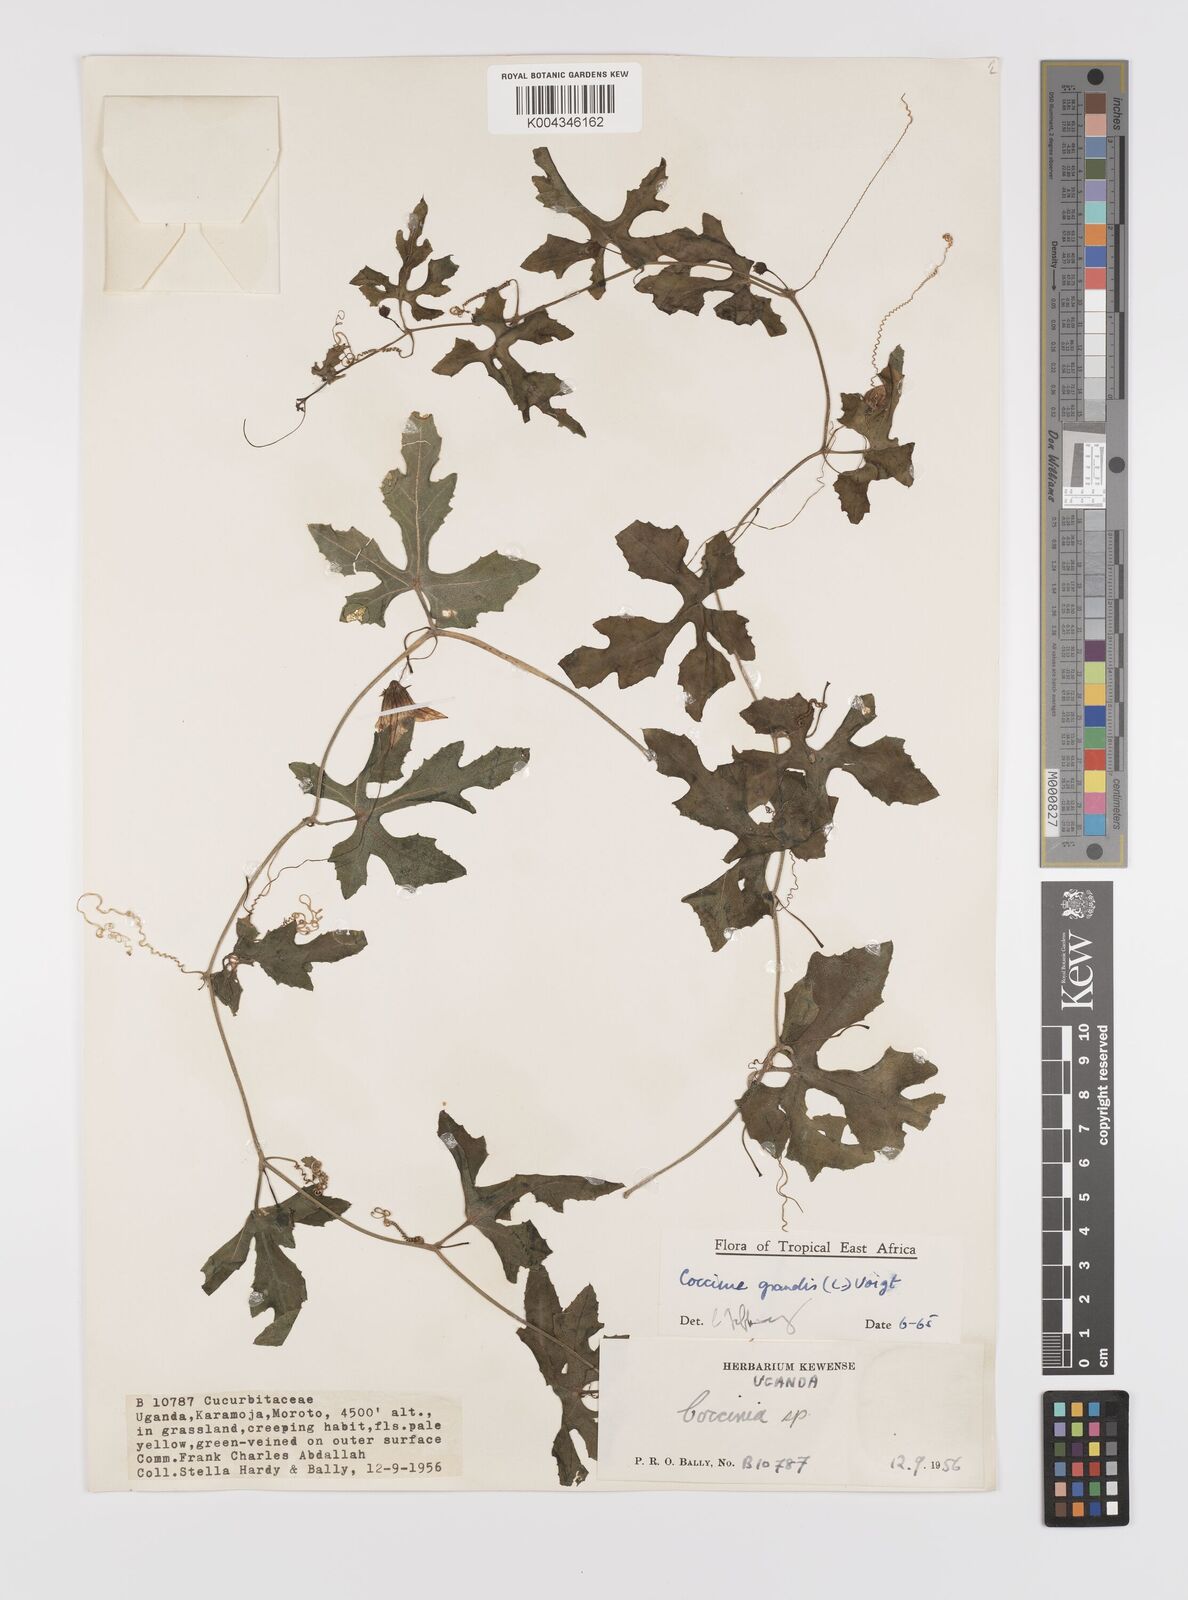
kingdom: Plantae
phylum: Tracheophyta
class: Magnoliopsida
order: Cucurbitales
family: Cucurbitaceae
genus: Coccinia
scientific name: Coccinia grandis
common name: Ivy gourd
